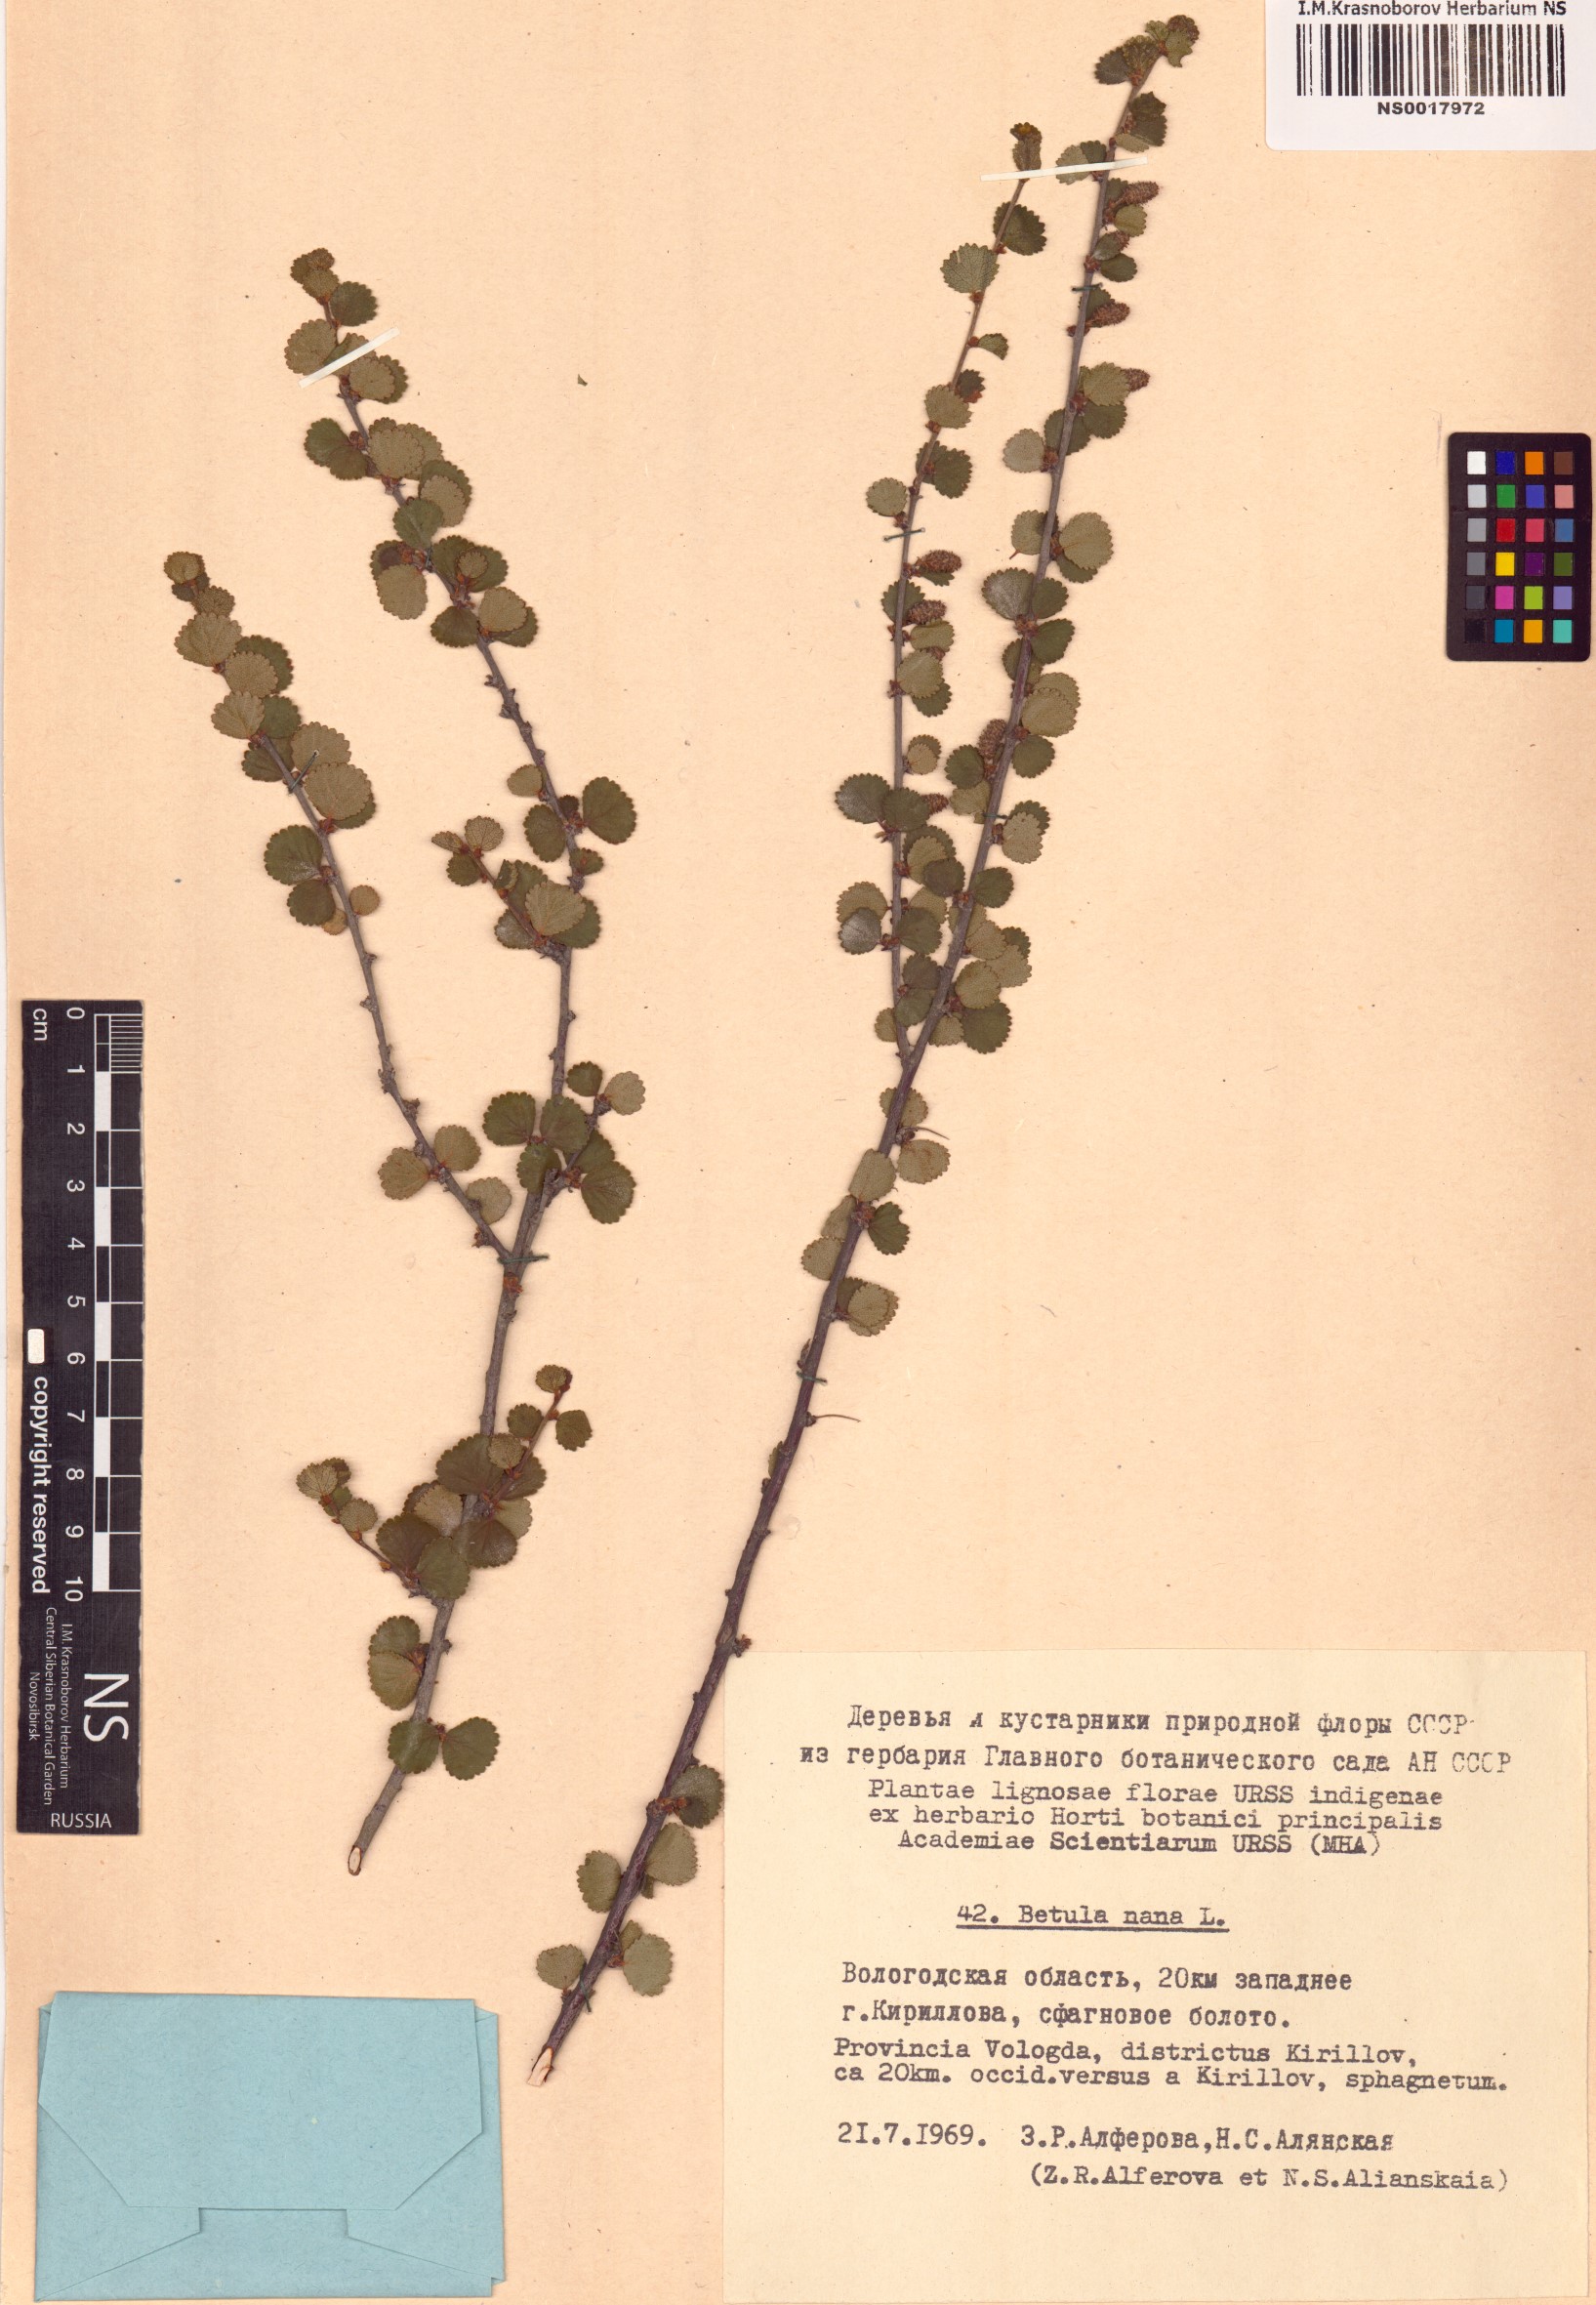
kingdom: Plantae
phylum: Tracheophyta
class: Magnoliopsida
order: Fagales
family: Betulaceae
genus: Betula
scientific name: Betula nana
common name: Arctic dwarf birch
